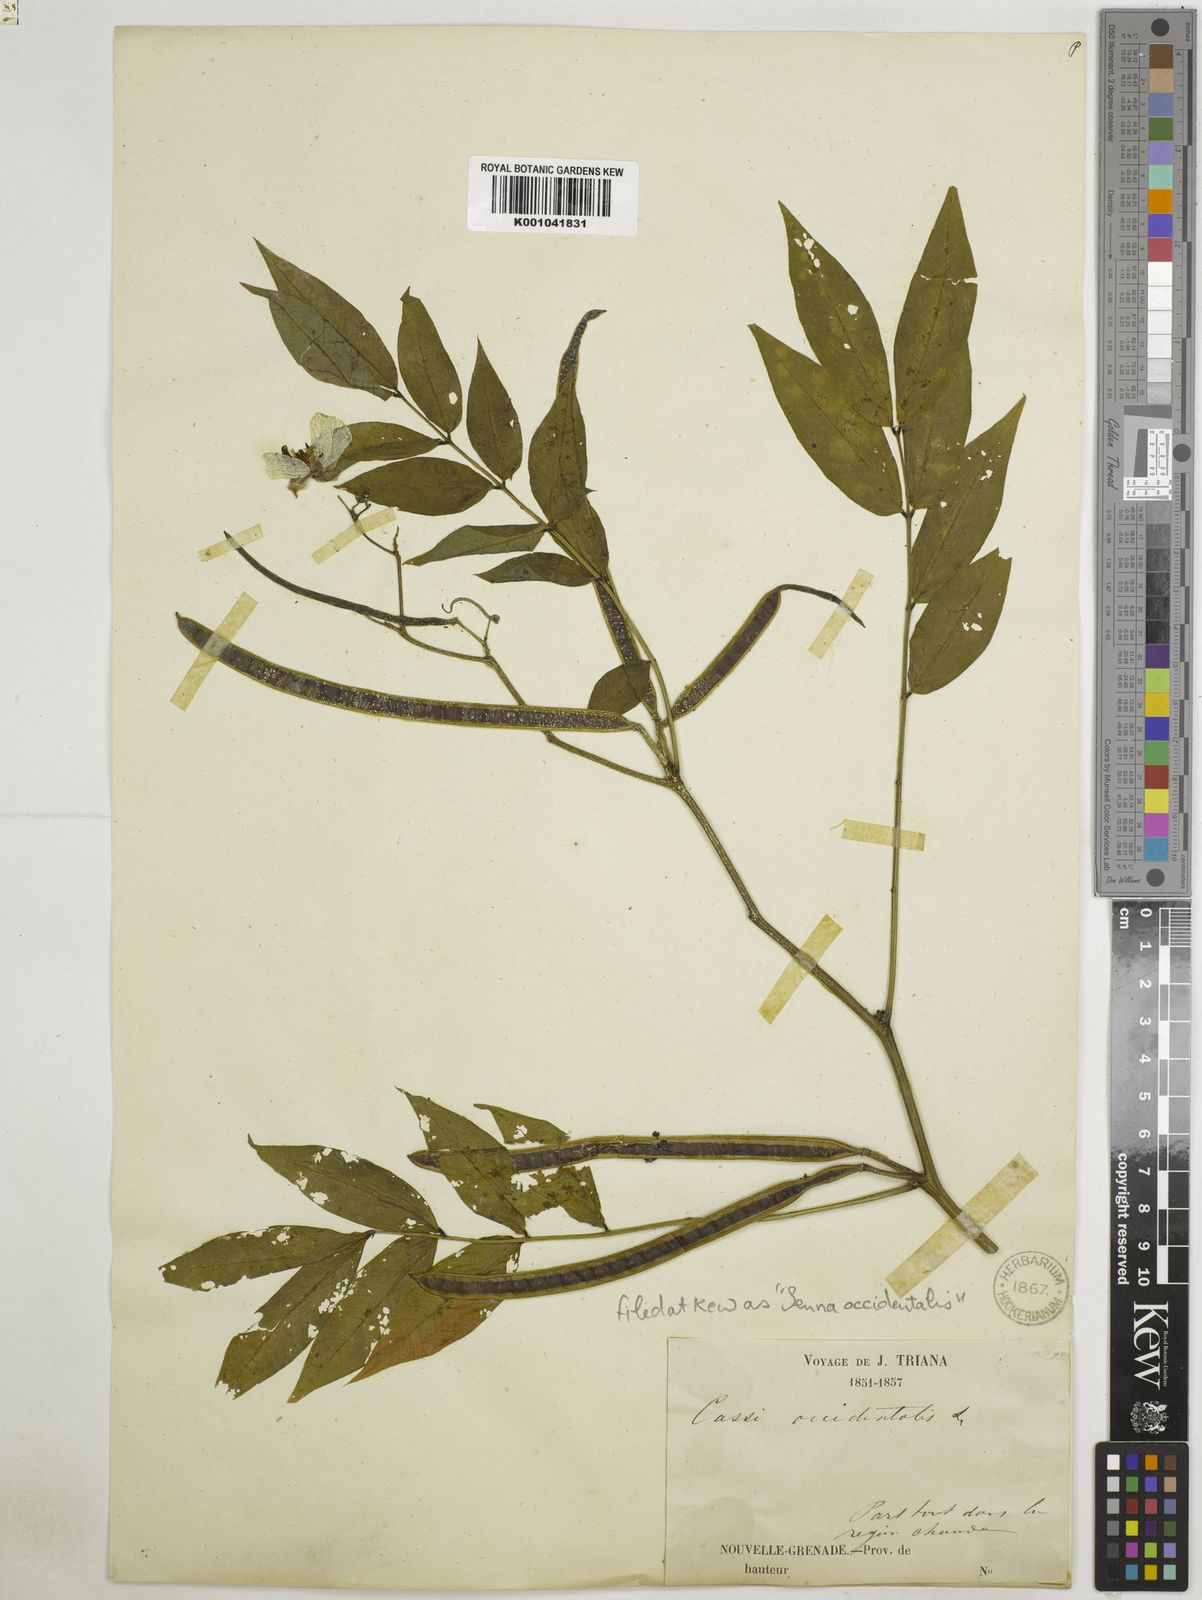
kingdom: Plantae
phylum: Tracheophyta
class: Magnoliopsida
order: Fabales
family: Fabaceae
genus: Senna
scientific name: Senna occidentalis
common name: Septicweed
